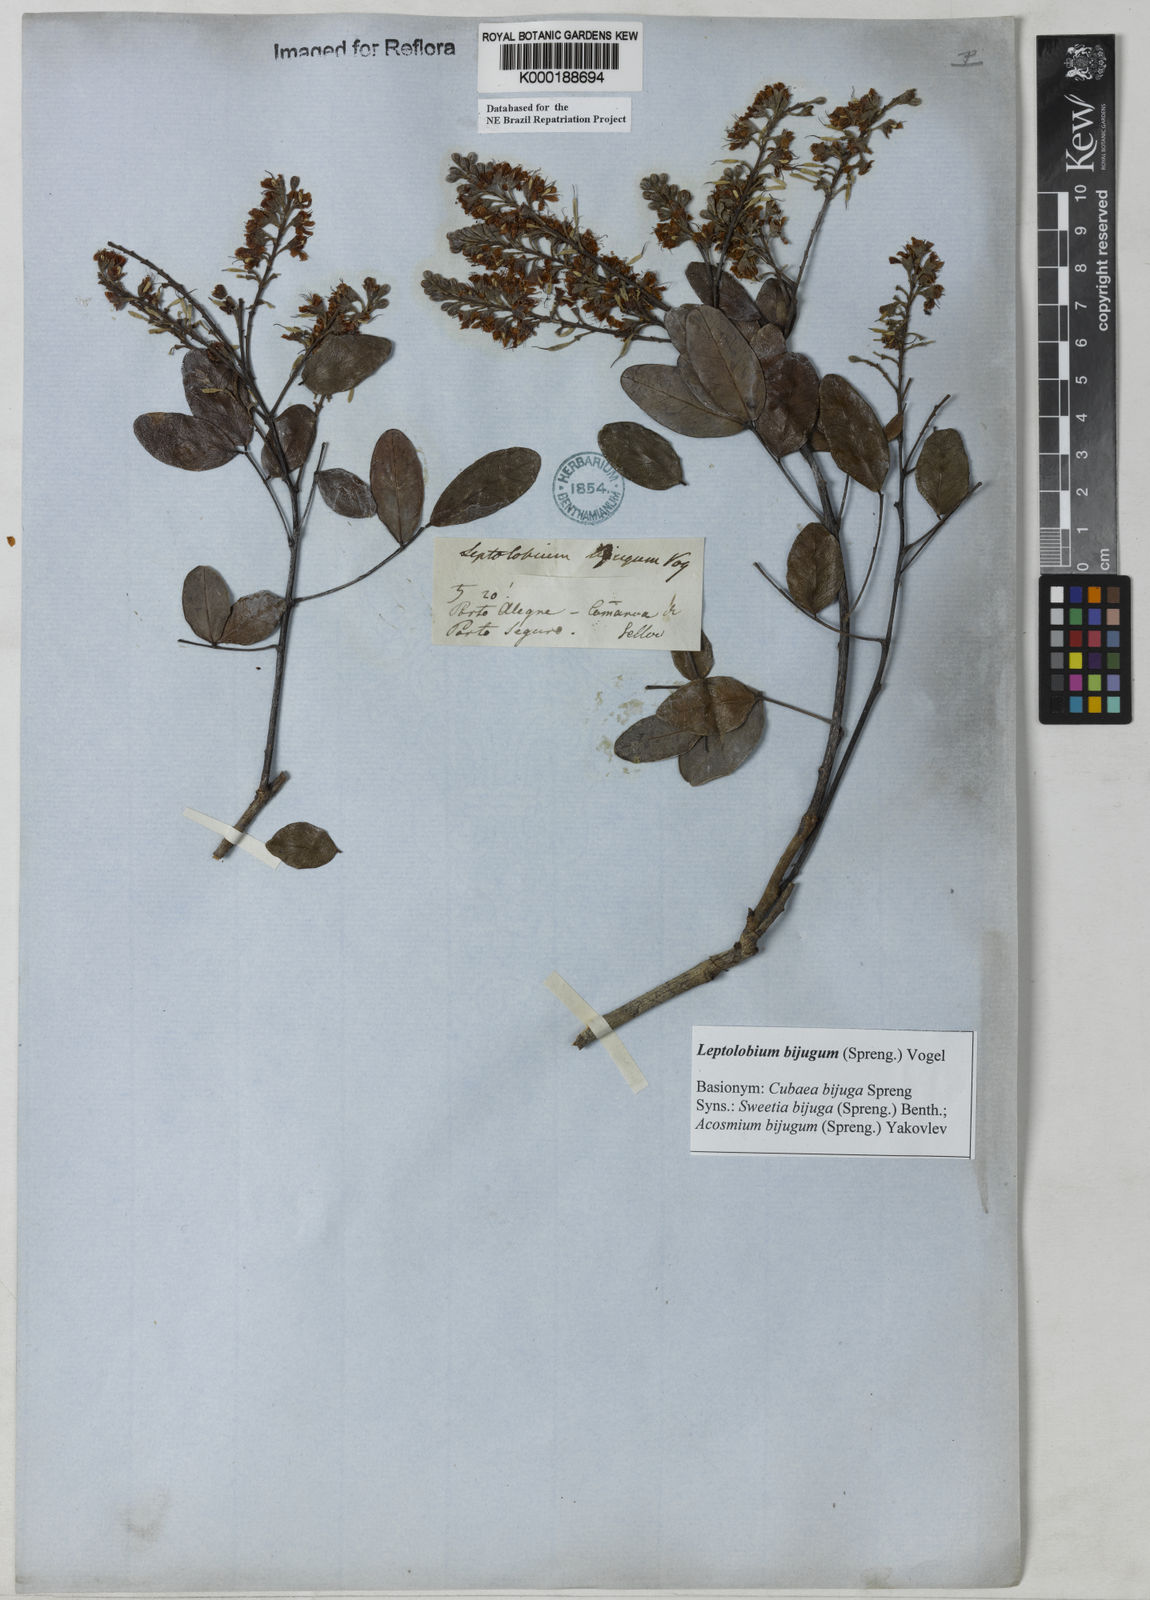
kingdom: Plantae
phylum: Tracheophyta
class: Magnoliopsida
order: Fabales
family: Fabaceae
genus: Leptolobium
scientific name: Leptolobium bijugum
